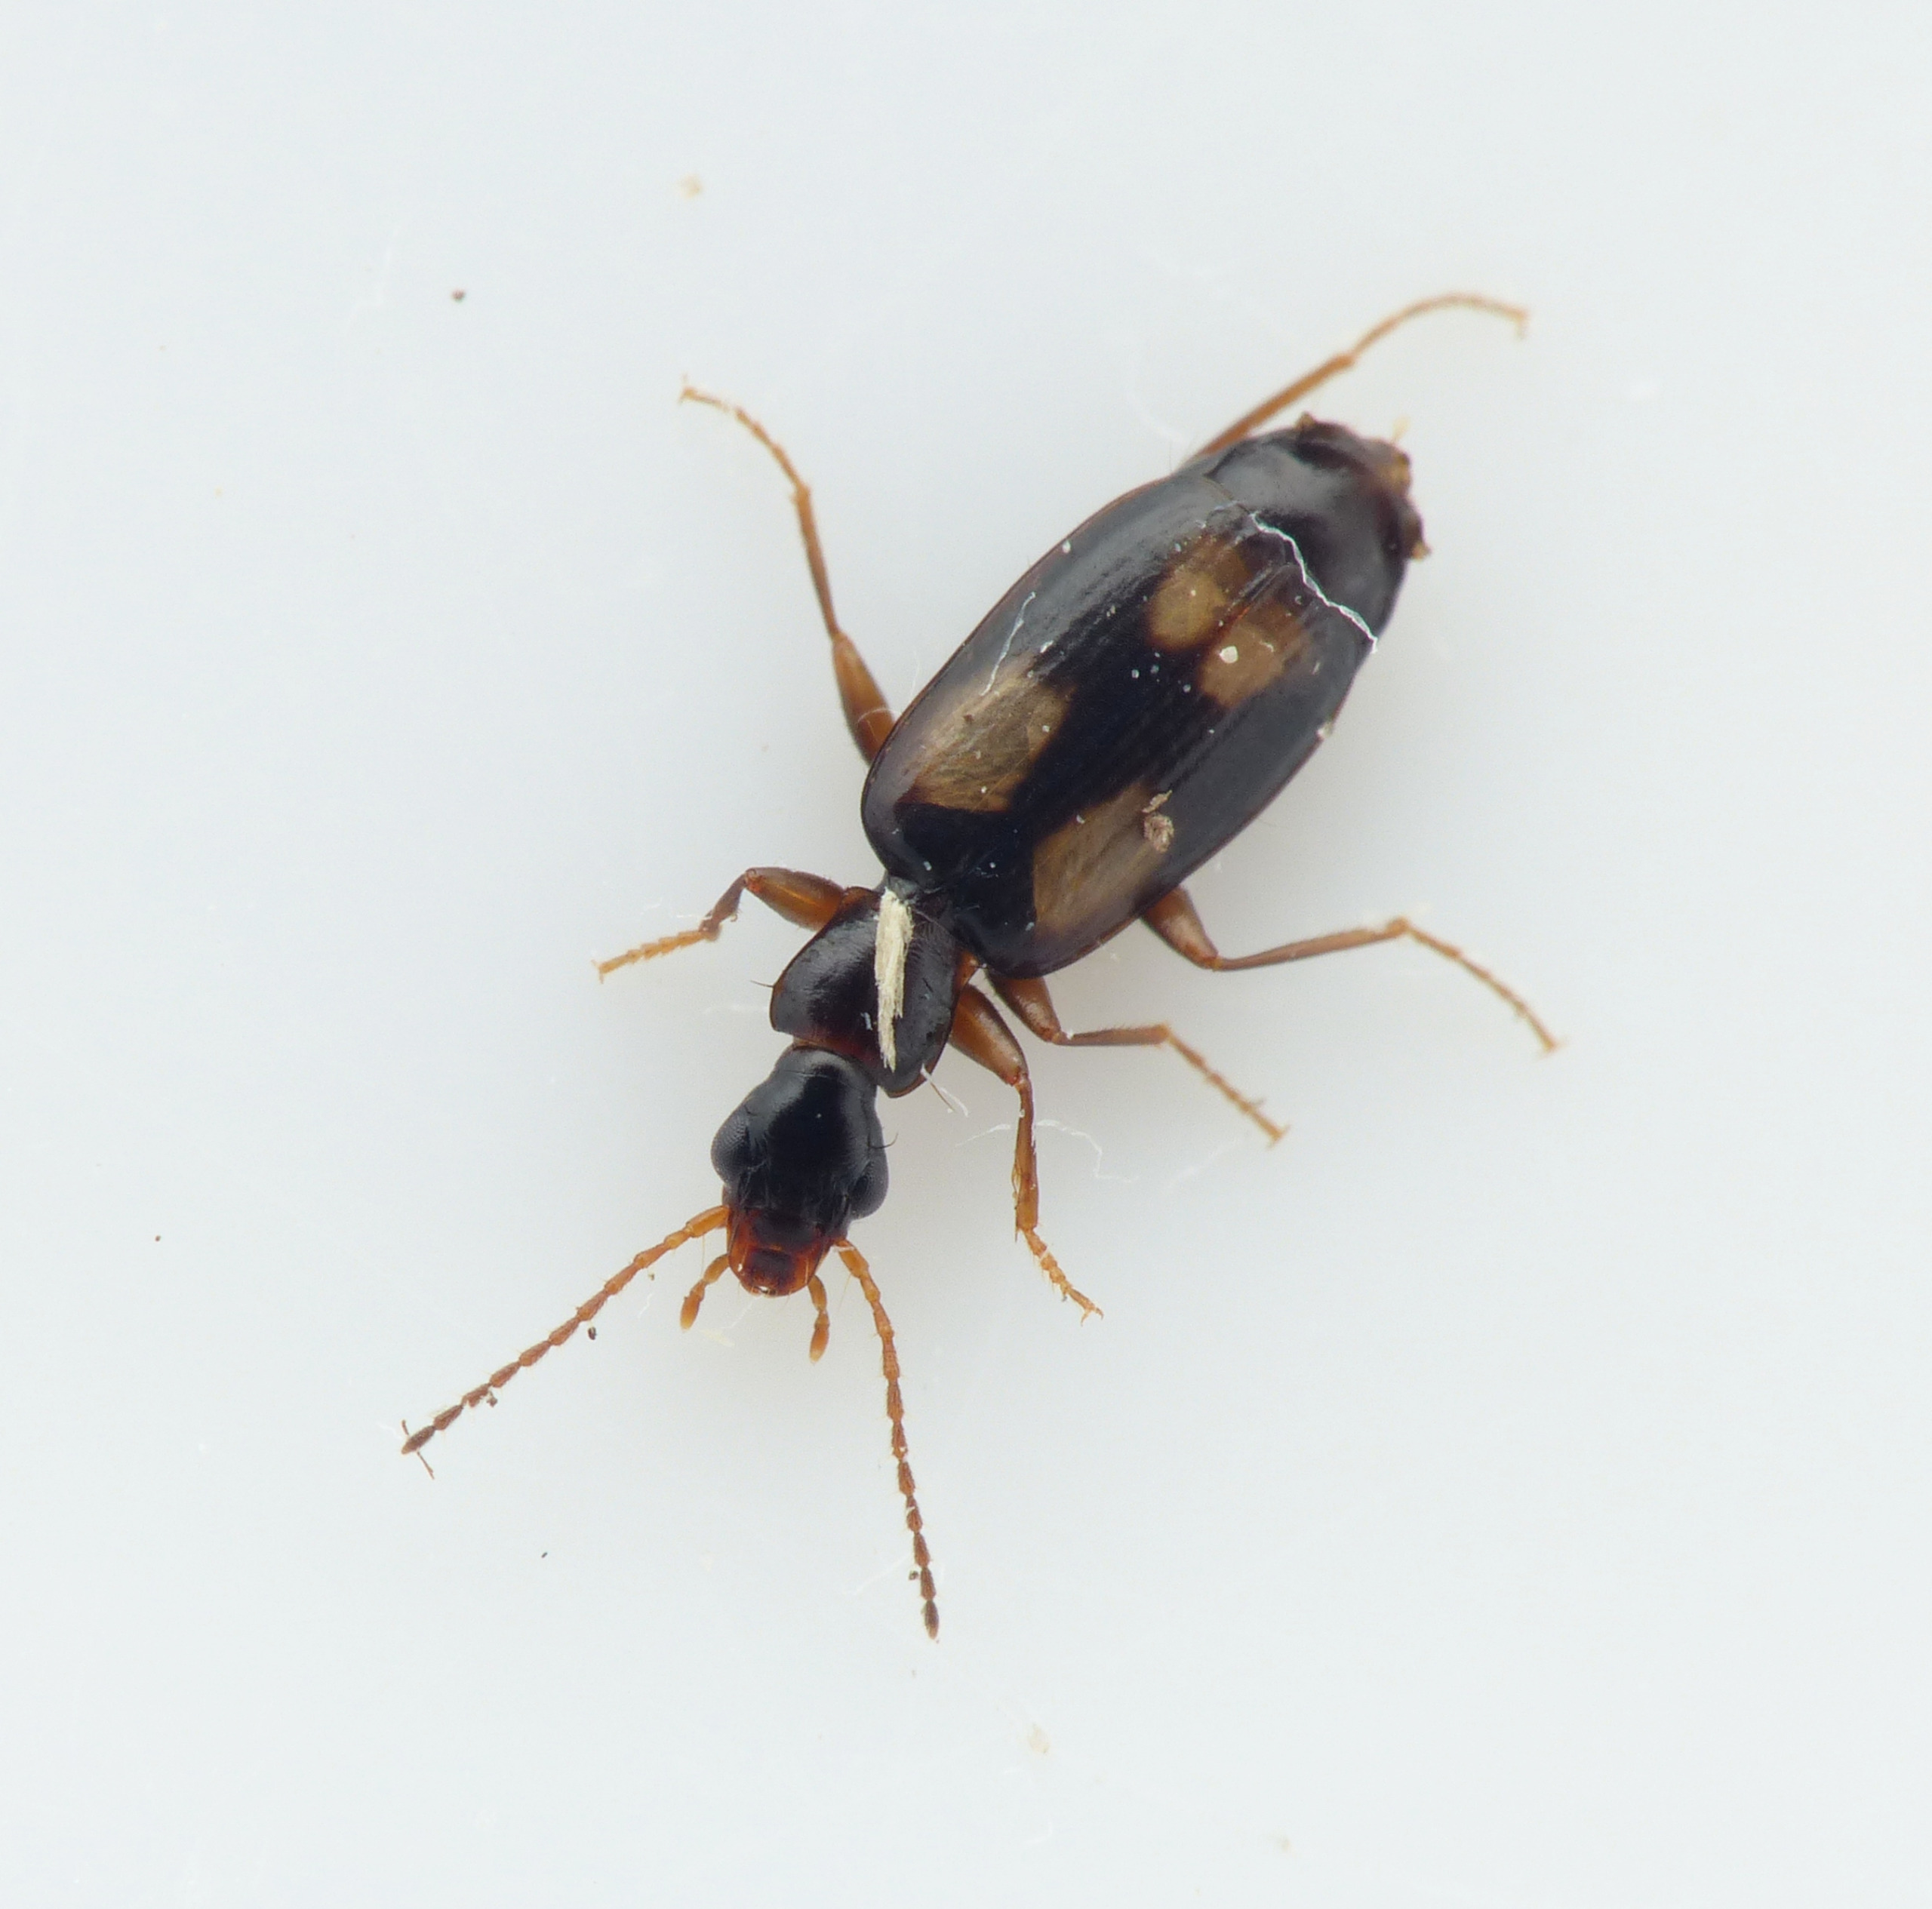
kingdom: Animalia
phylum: Arthropoda
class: Insecta
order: Coleoptera
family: Carabidae
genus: Calodromius
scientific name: Calodromius spilotus
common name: Lysplettet barkløber
